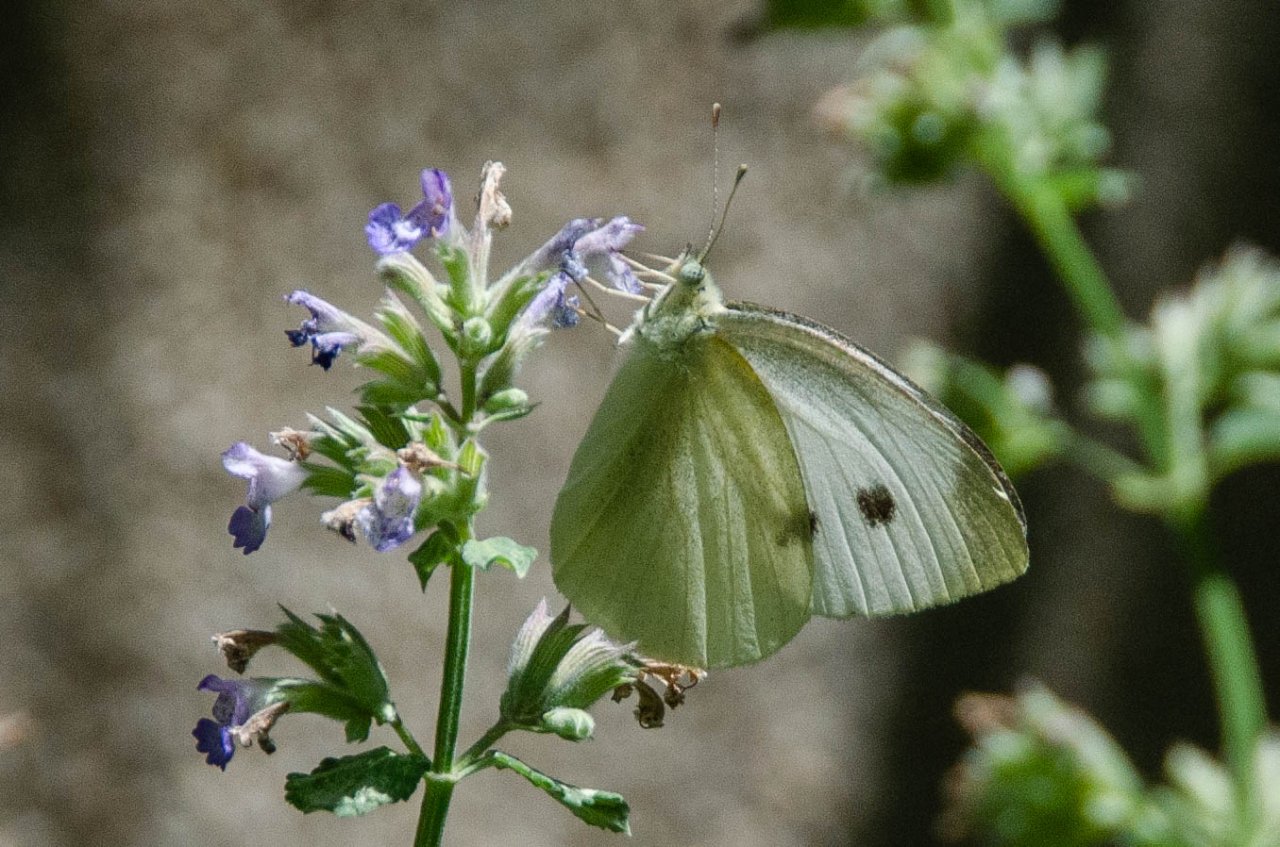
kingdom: Animalia
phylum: Arthropoda
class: Insecta
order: Lepidoptera
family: Pieridae
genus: Pieris
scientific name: Pieris rapae
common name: Cabbage White
